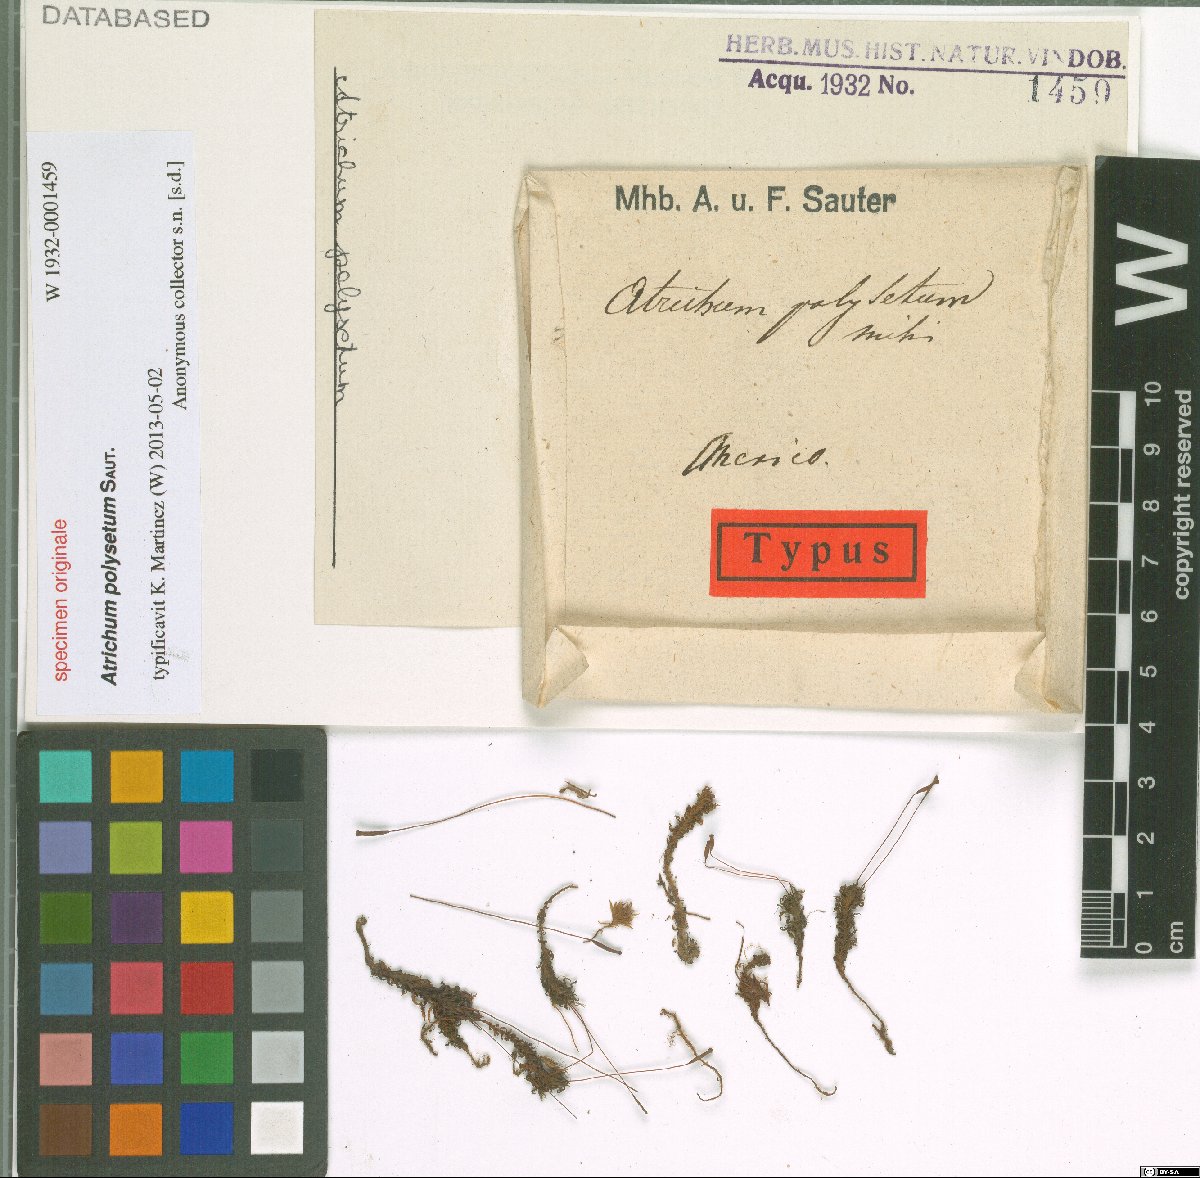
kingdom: Plantae
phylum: Bryophyta
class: Polytrichopsida
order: Polytrichales
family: Polytrichaceae
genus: Atrichum
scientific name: Atrichum
